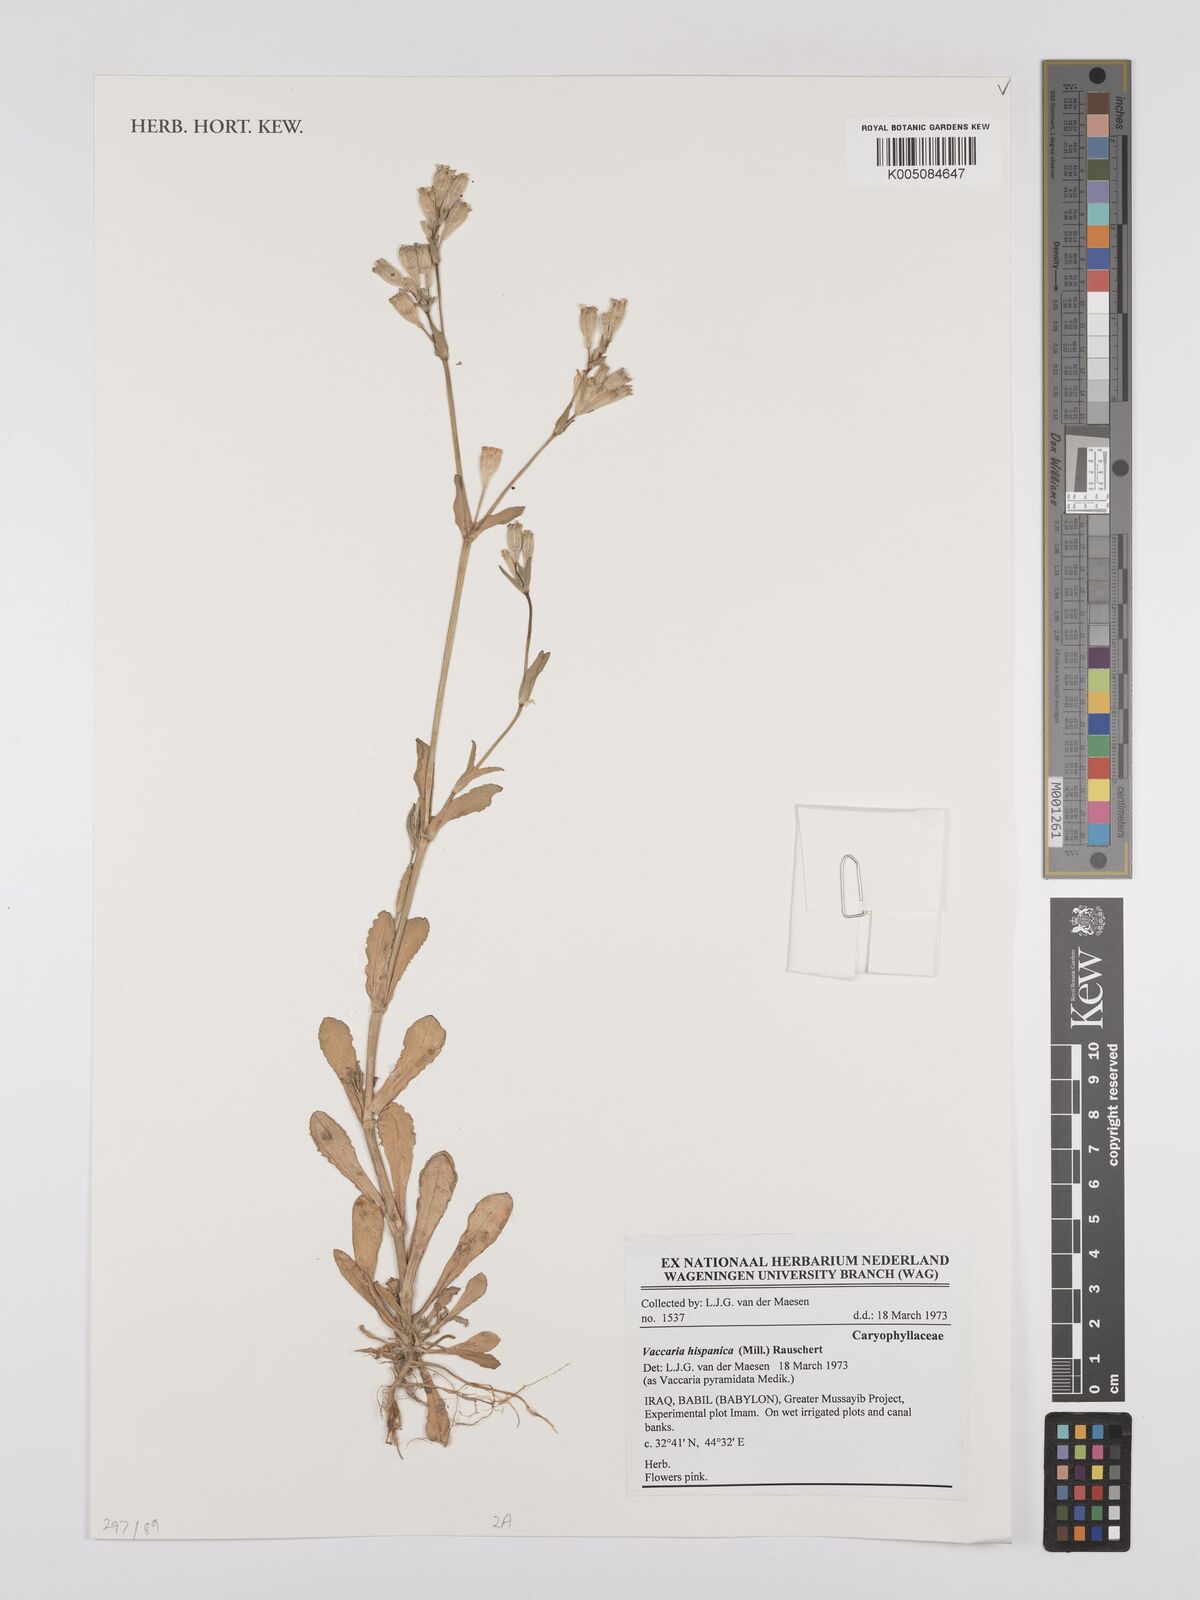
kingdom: Plantae
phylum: Tracheophyta
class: Magnoliopsida
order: Caryophyllales
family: Caryophyllaceae
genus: Gypsophila
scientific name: Gypsophila vaccaria
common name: Cow soapwort
